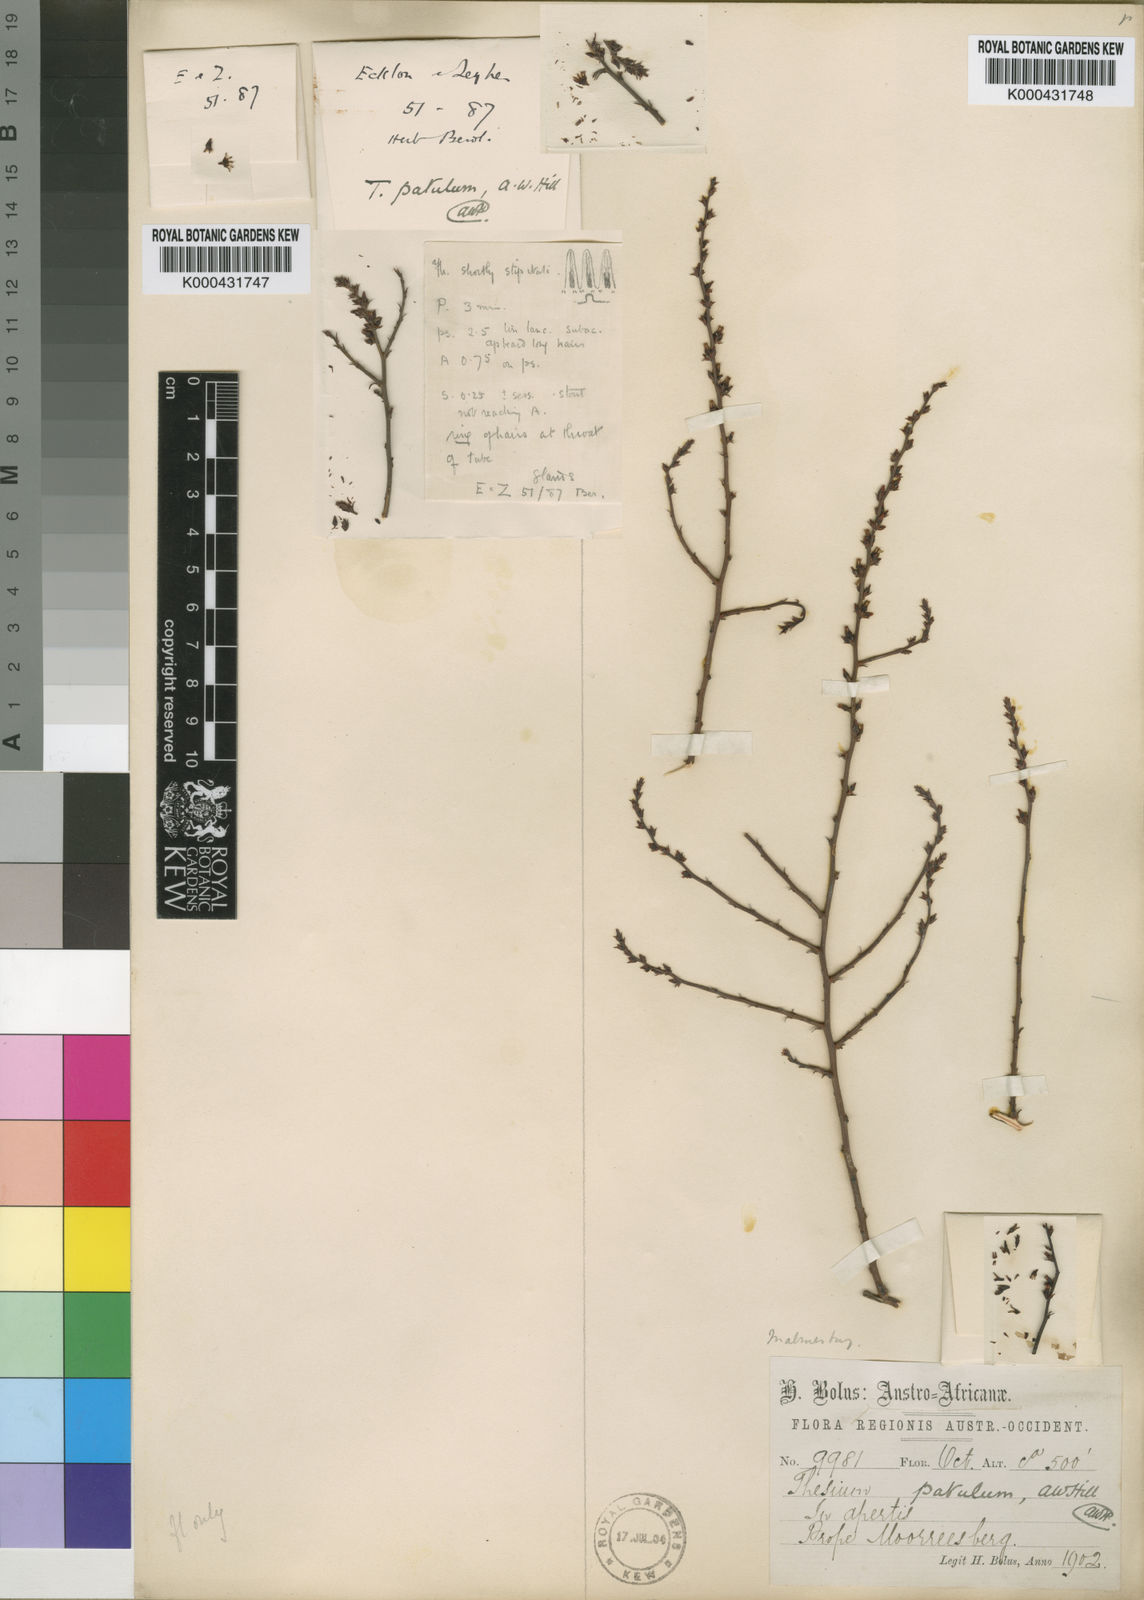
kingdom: Plantae
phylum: Tracheophyta
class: Magnoliopsida
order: Santalales
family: Thesiaceae
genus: Thesium
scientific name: Thesium patulum
